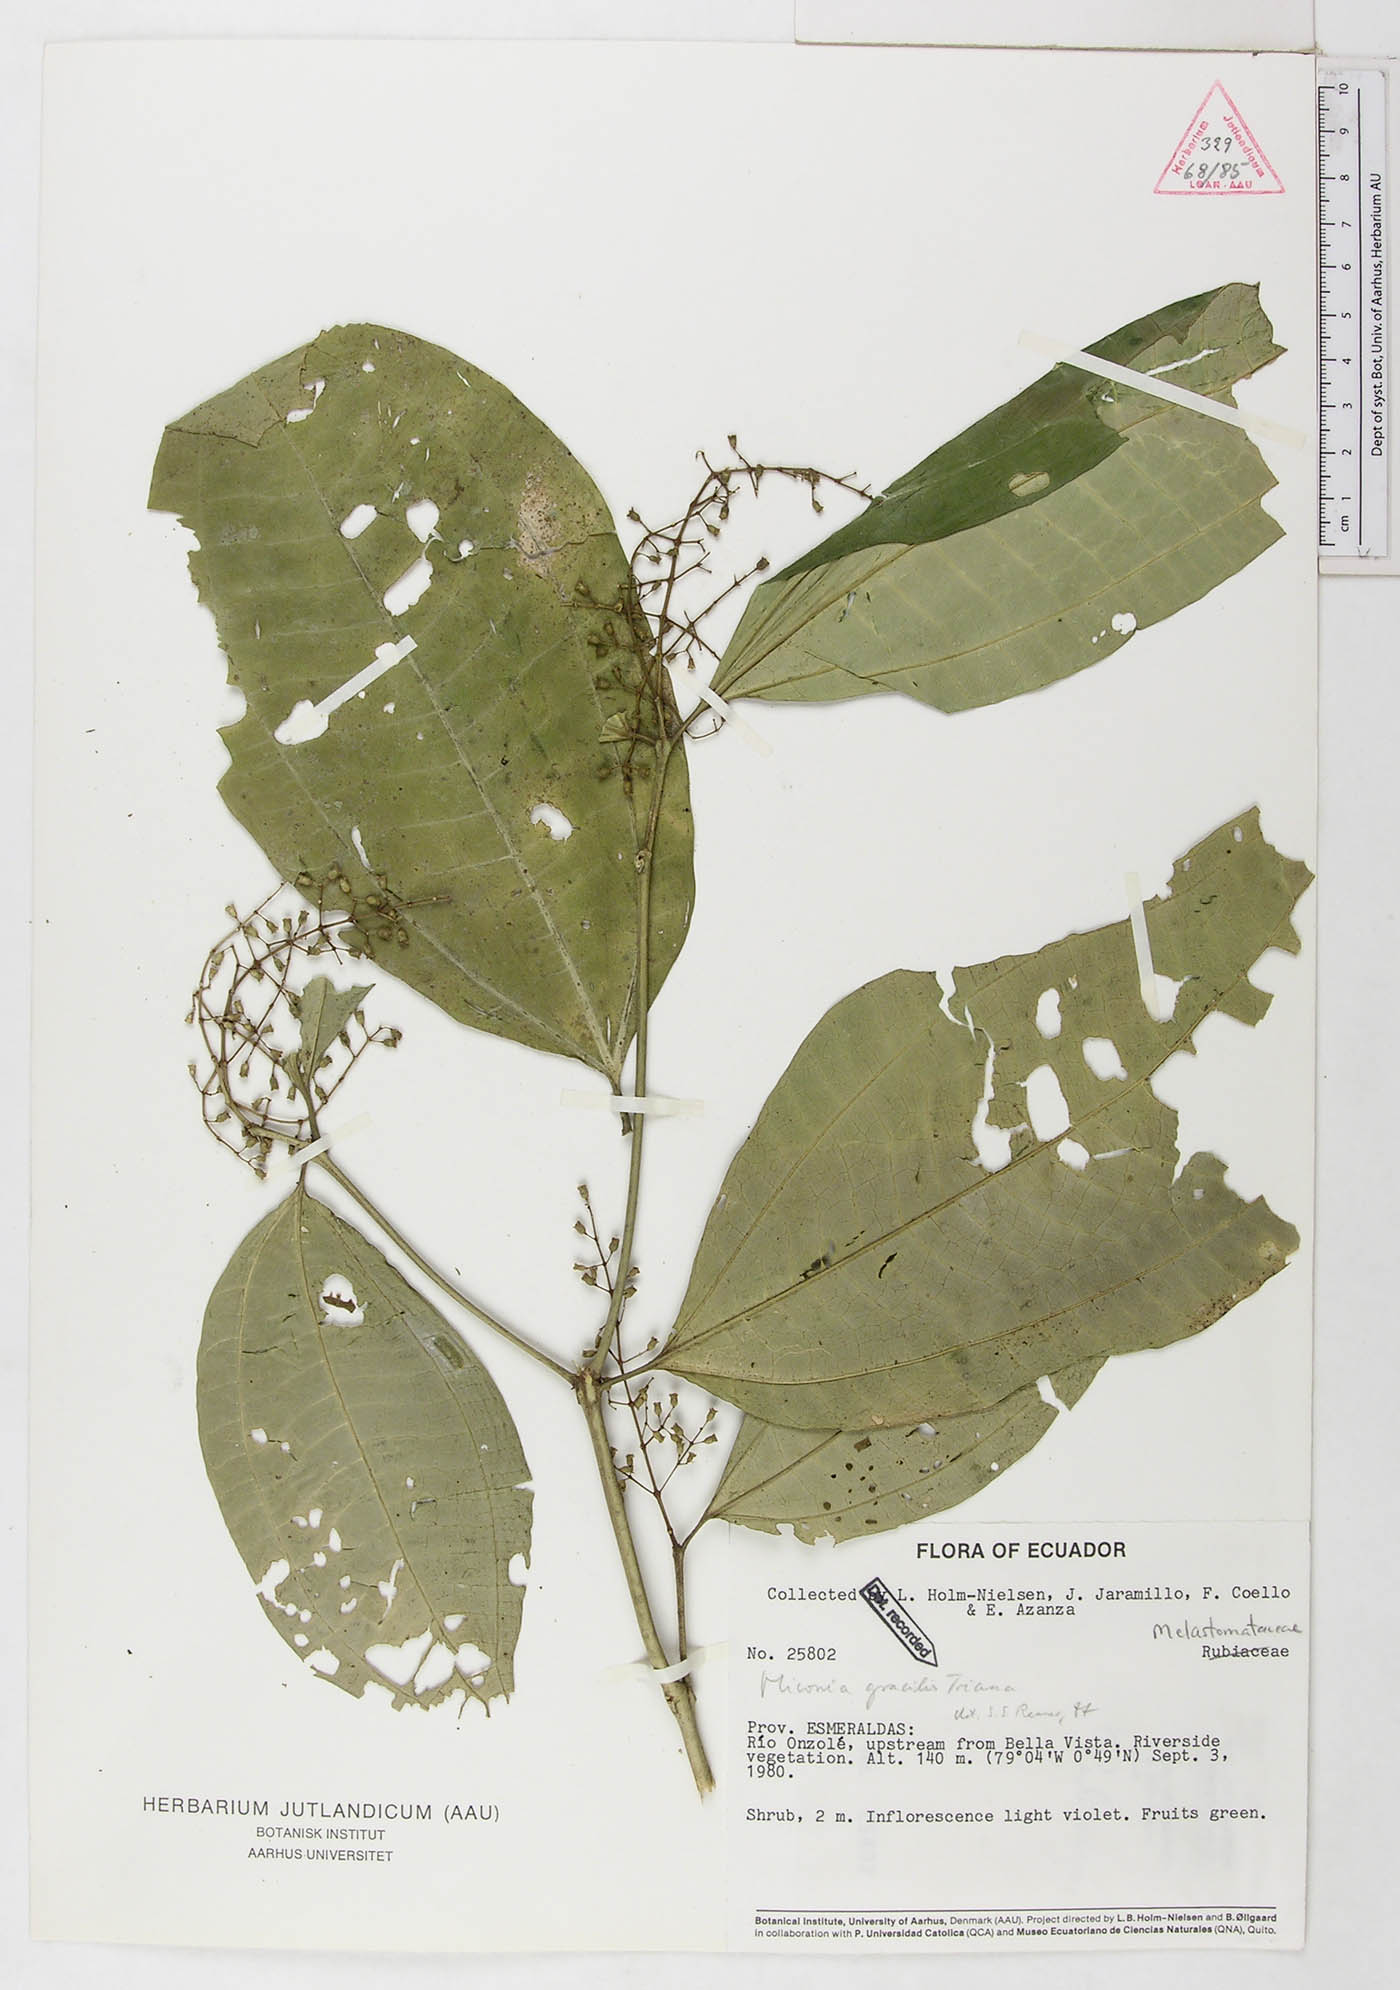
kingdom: Plantae
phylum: Tracheophyta
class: Magnoliopsida
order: Myrtales
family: Melastomataceae
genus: Miconia
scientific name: Miconia gracilis
